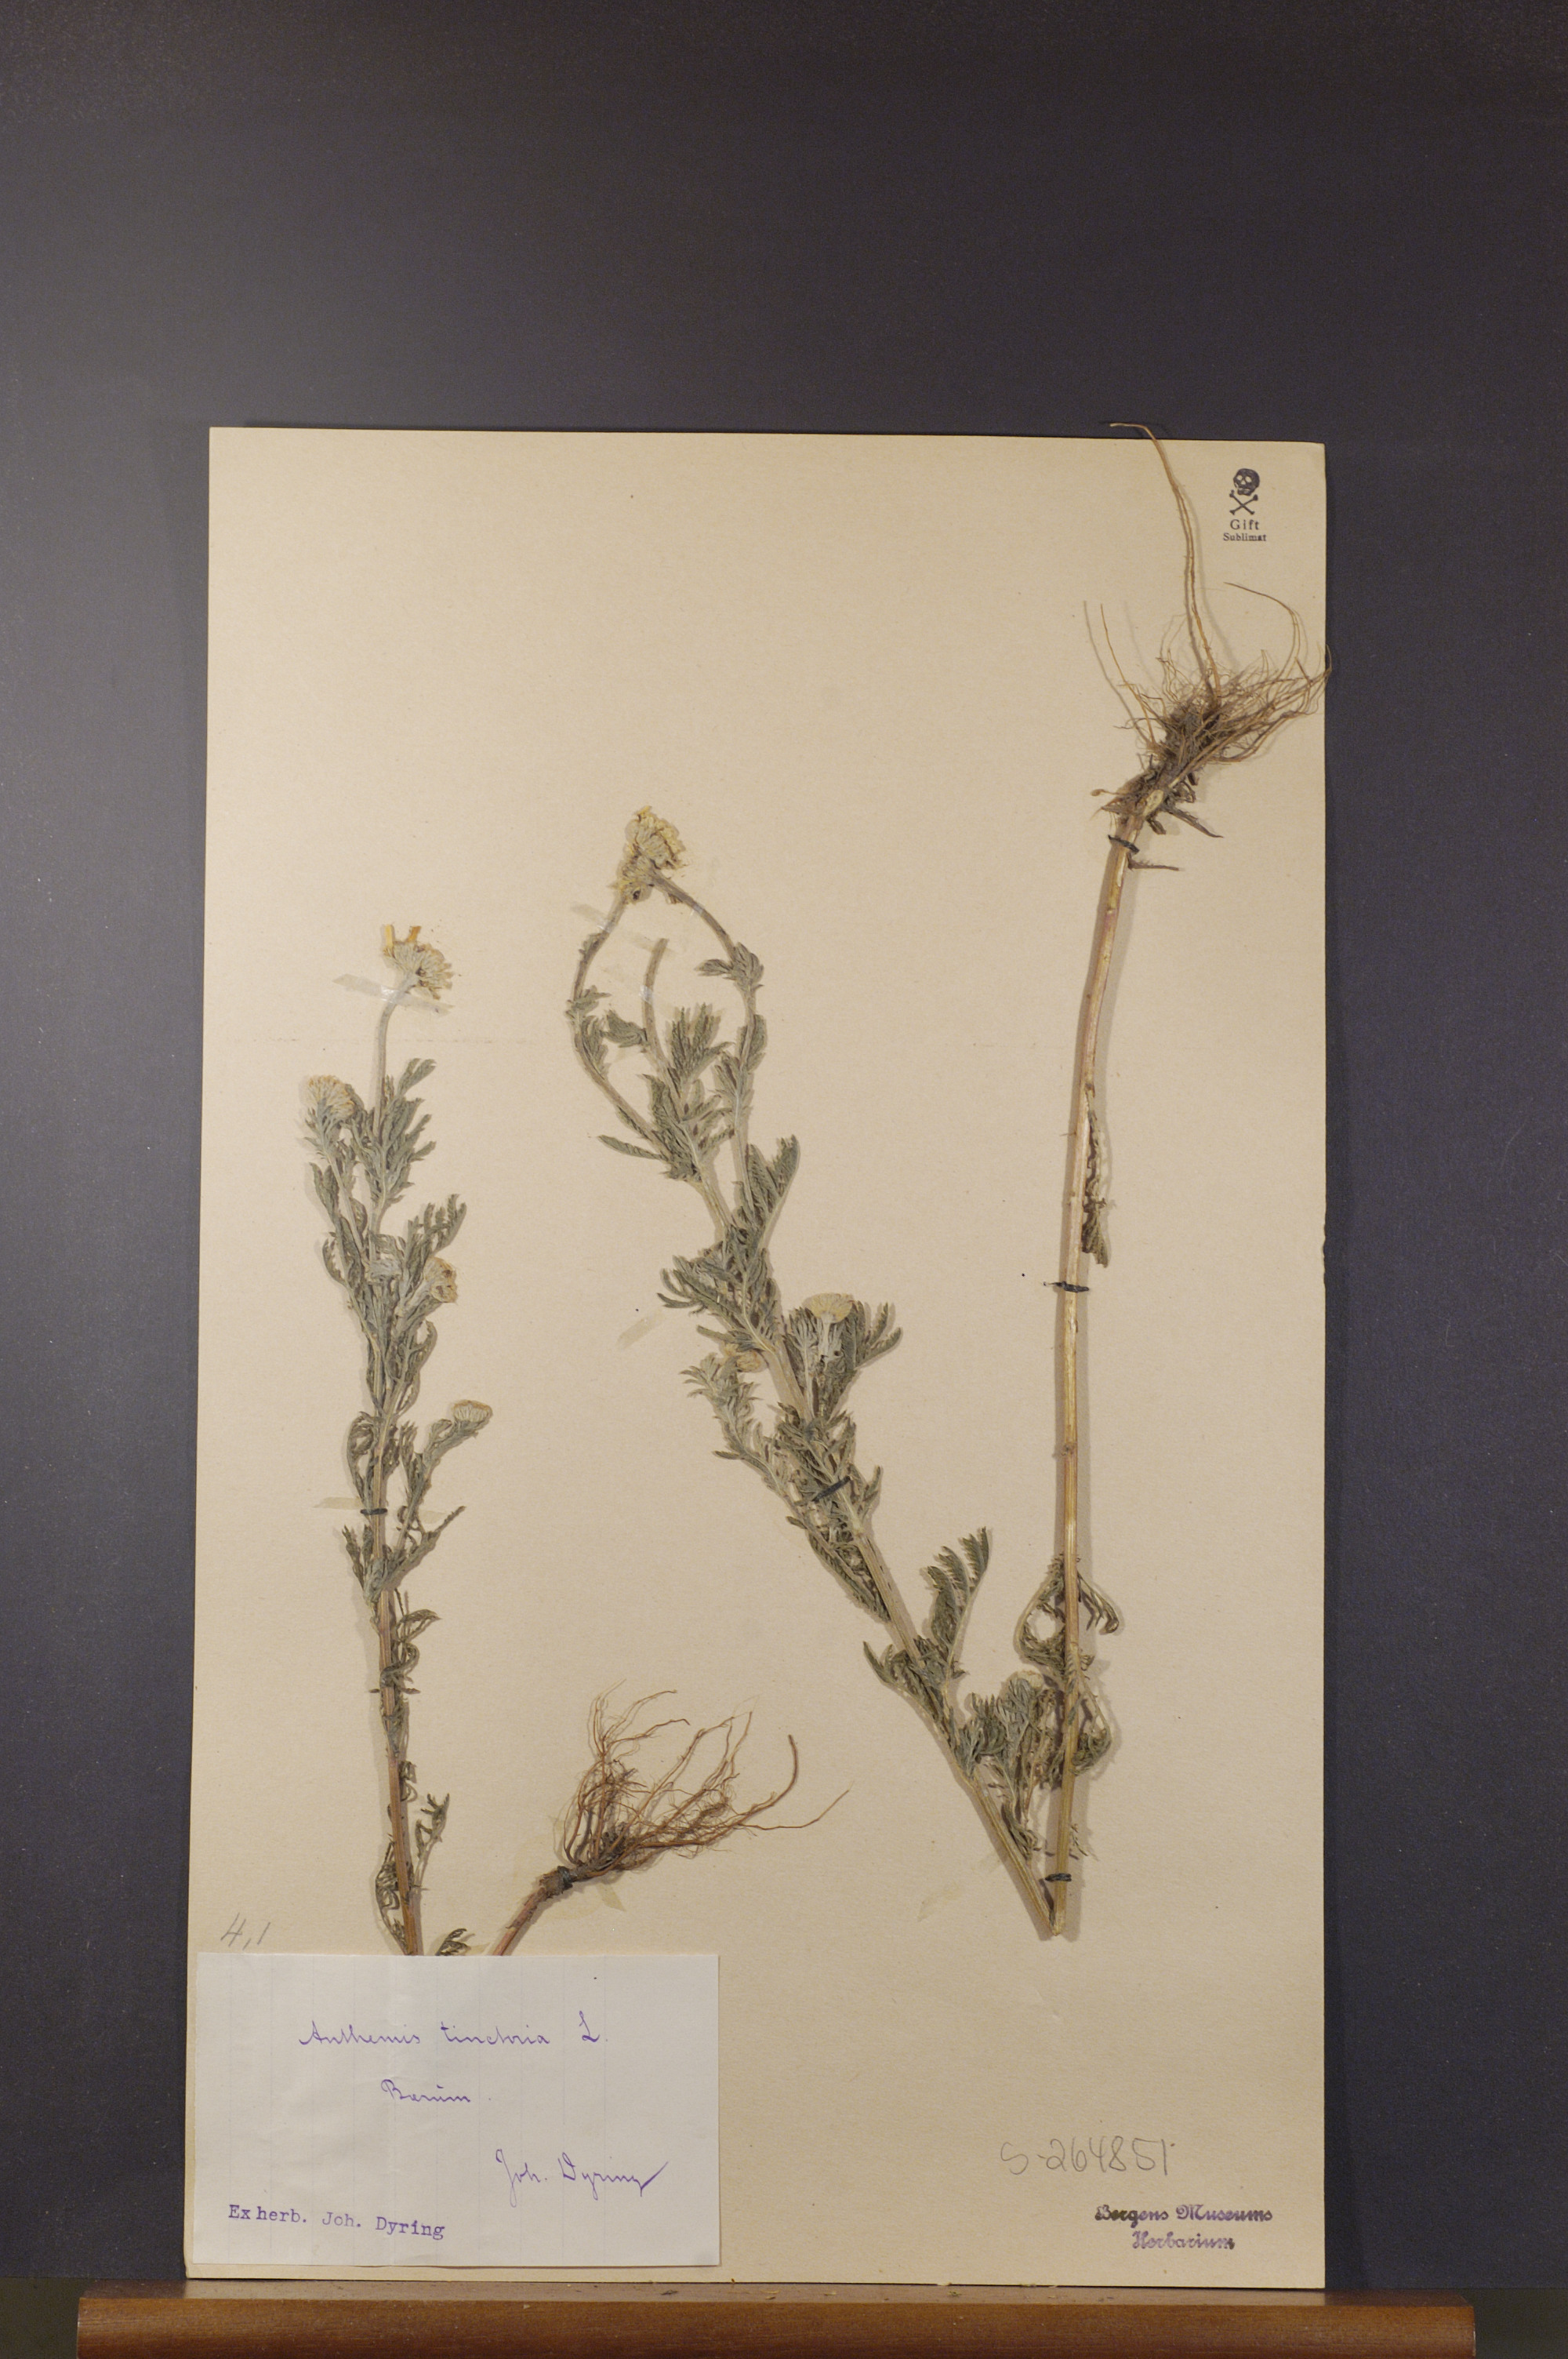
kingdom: Plantae
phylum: Tracheophyta
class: Magnoliopsida
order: Asterales
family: Asteraceae
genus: Cota
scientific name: Cota tinctoria
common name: Golden chamomile
